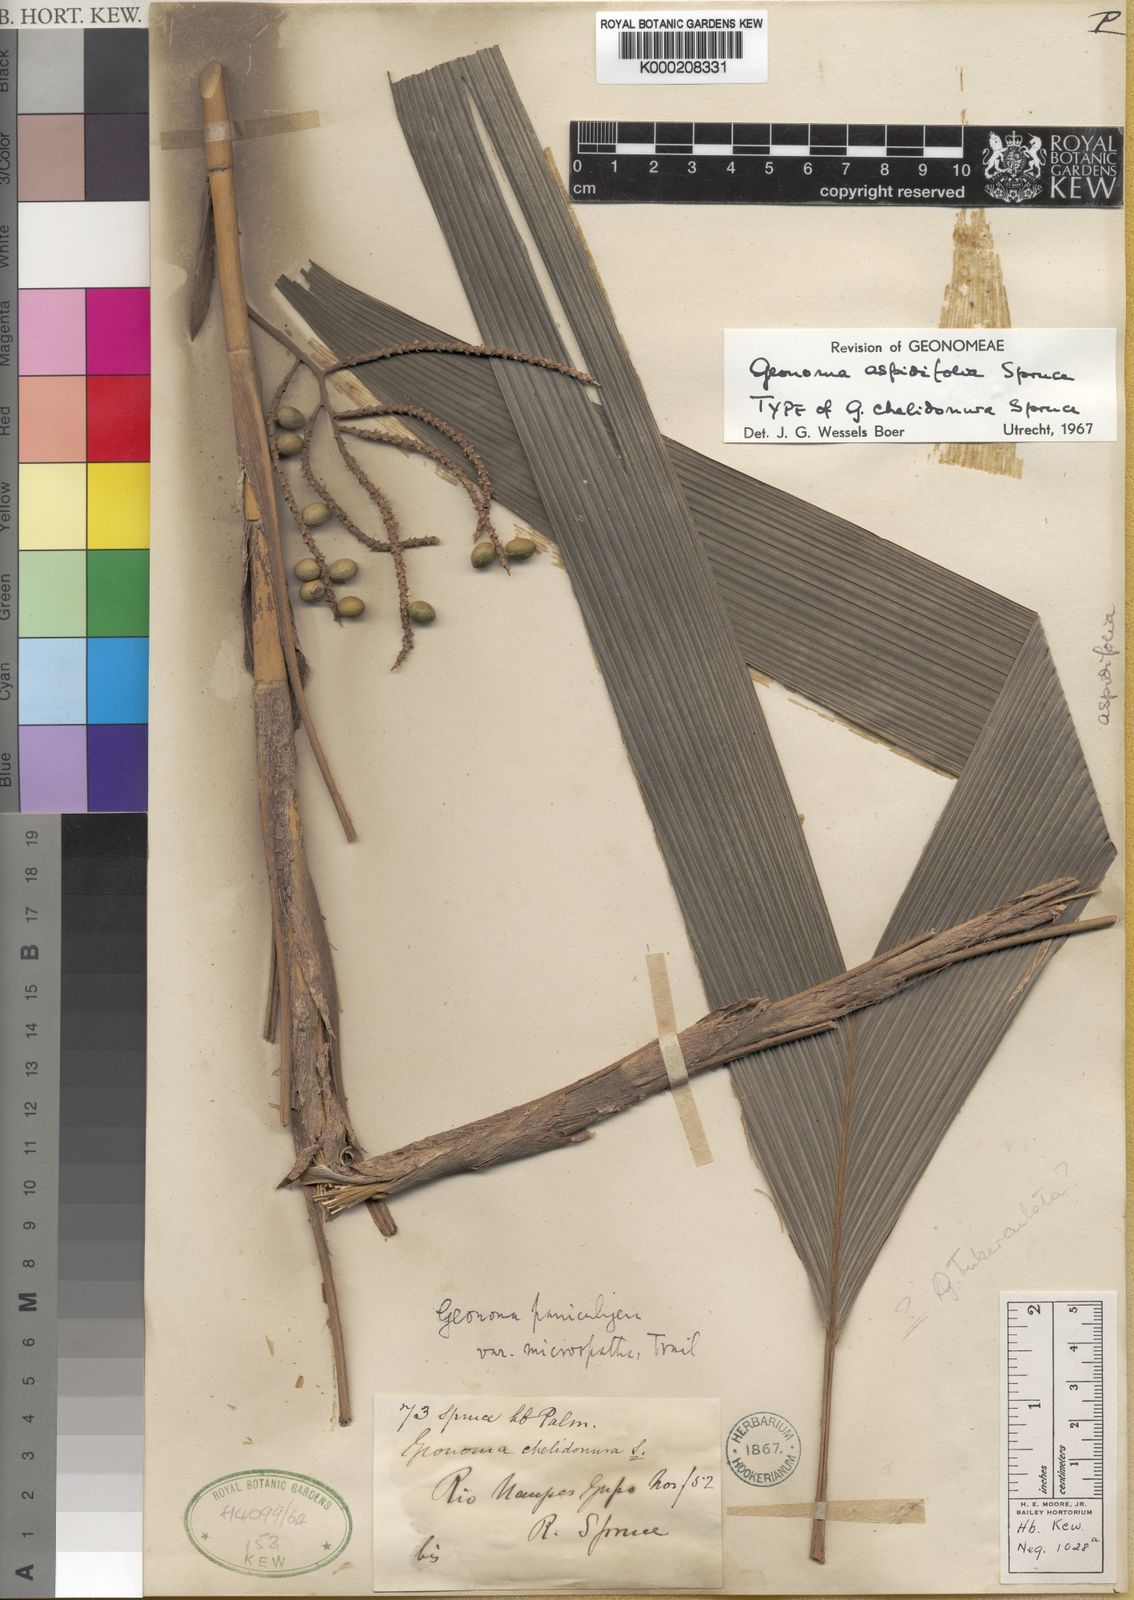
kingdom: Plantae
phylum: Tracheophyta
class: Liliopsida
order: Arecales
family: Arecaceae
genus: Geonoma
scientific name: Geonoma aspidiifolia
